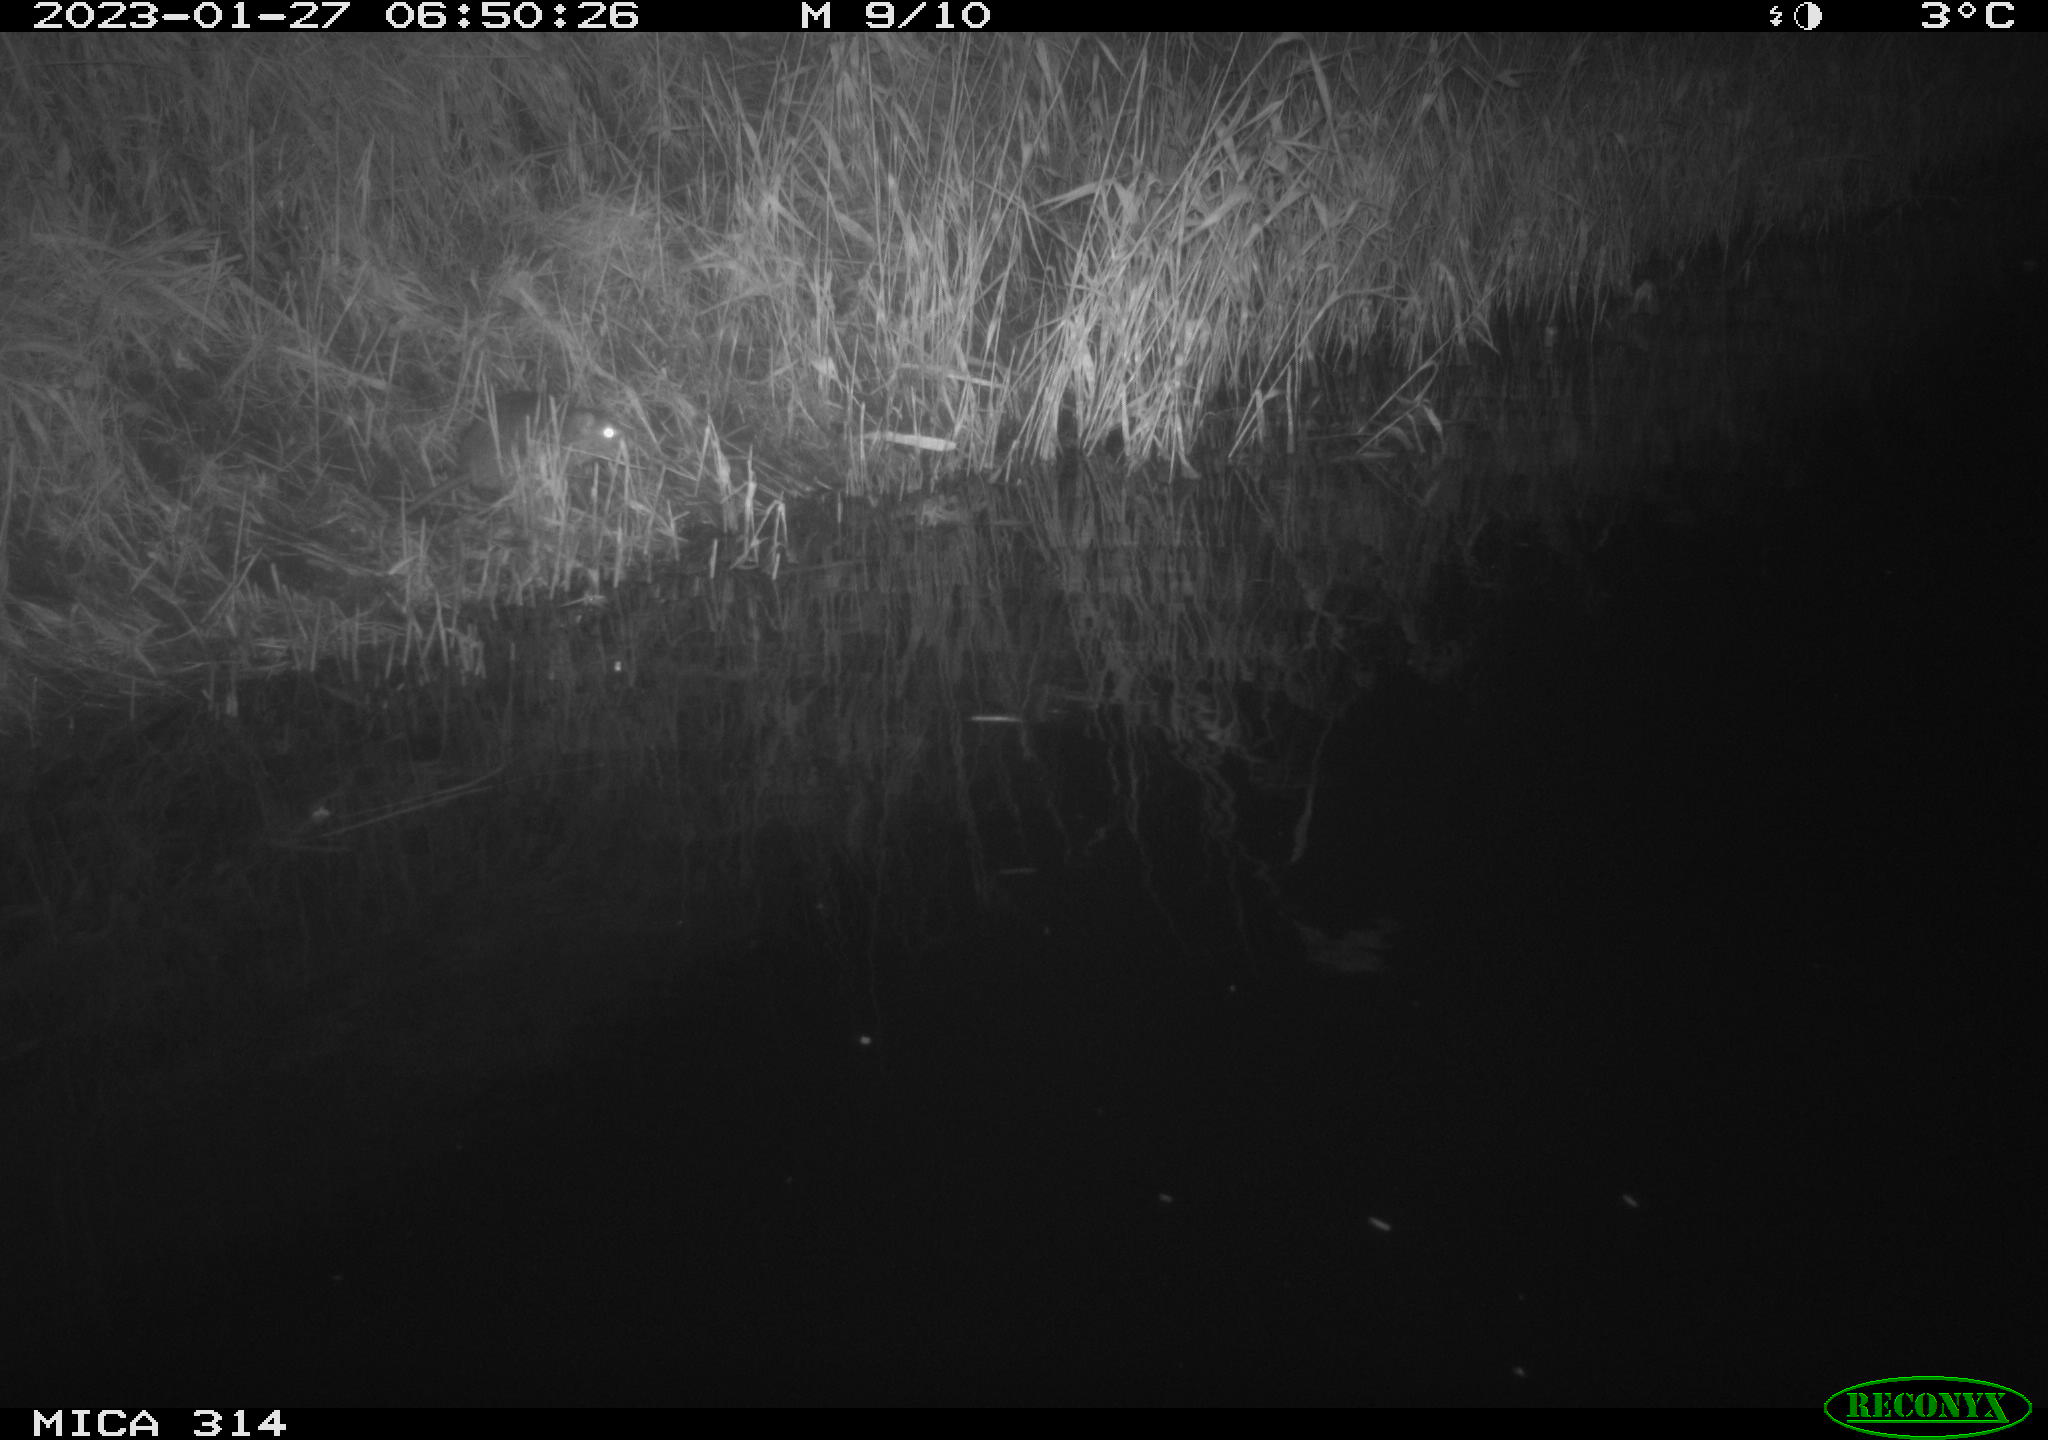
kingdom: Animalia
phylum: Chordata
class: Mammalia
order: Rodentia
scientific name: Rodentia
